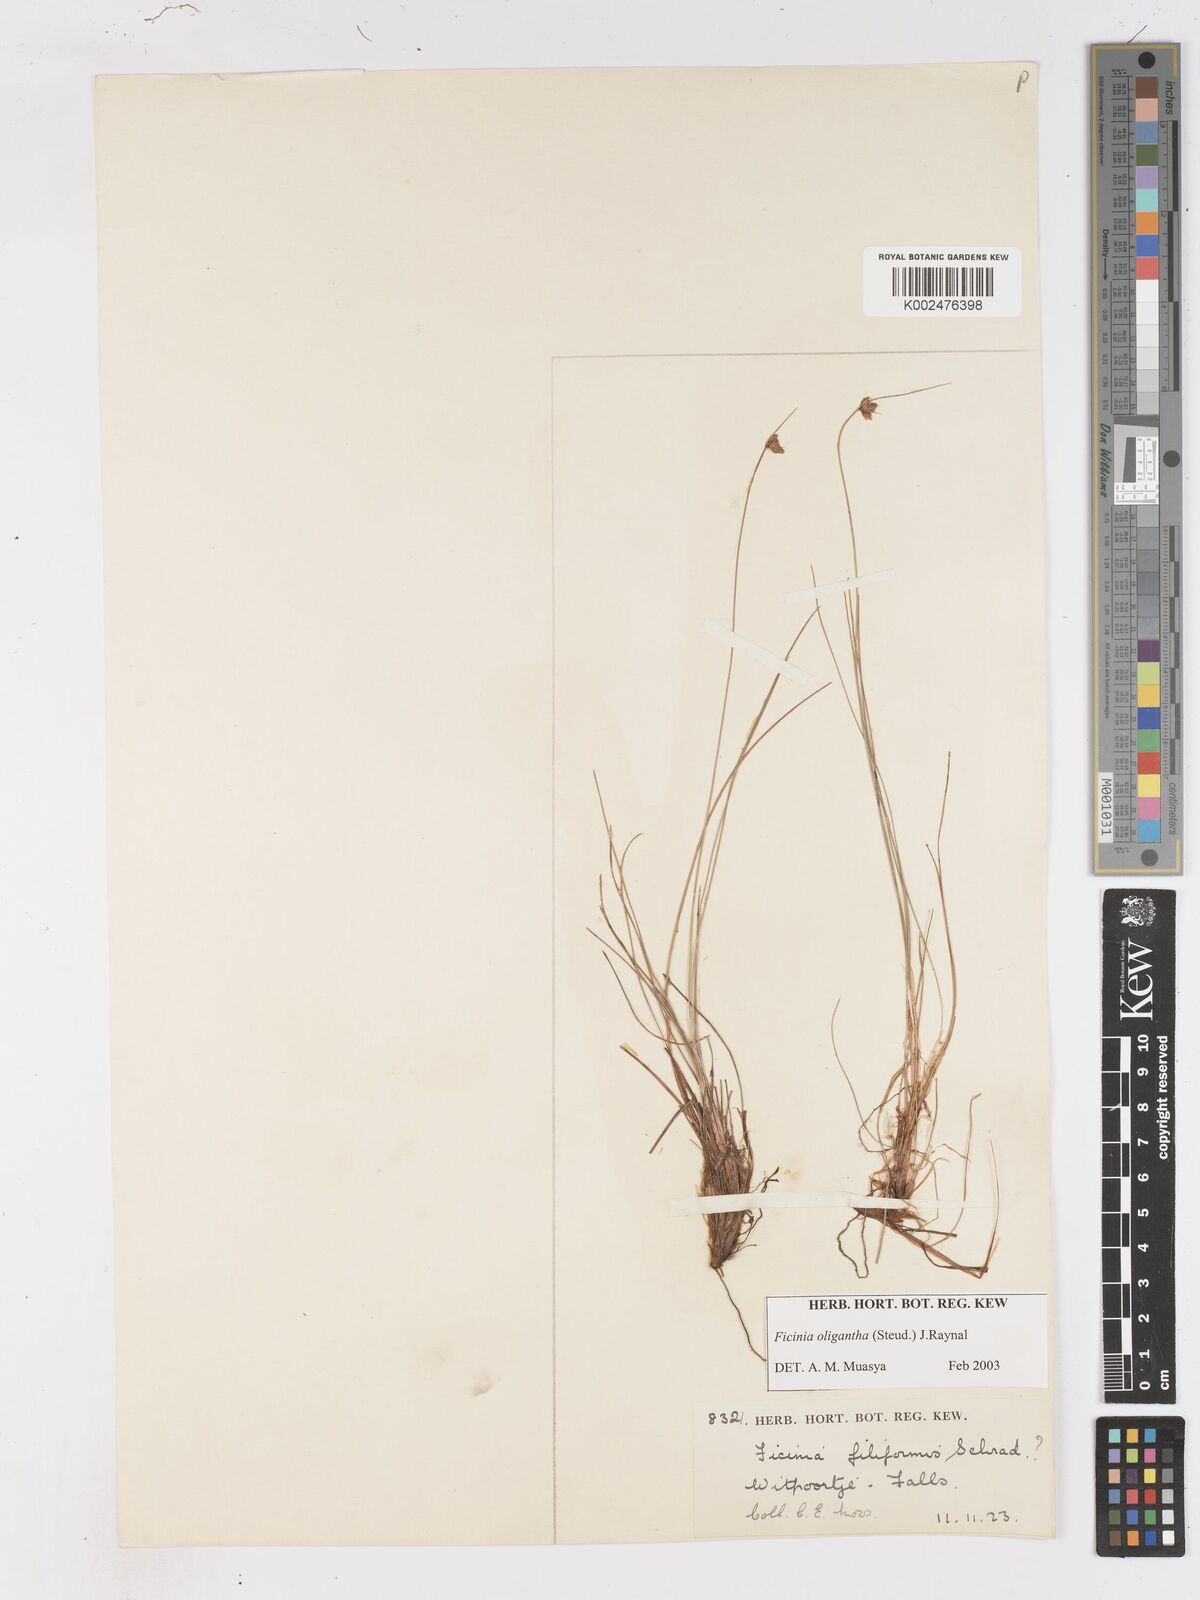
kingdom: Plantae
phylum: Tracheophyta
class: Liliopsida
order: Poales
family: Cyperaceae
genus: Ficinia
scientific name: Ficinia oligantha
